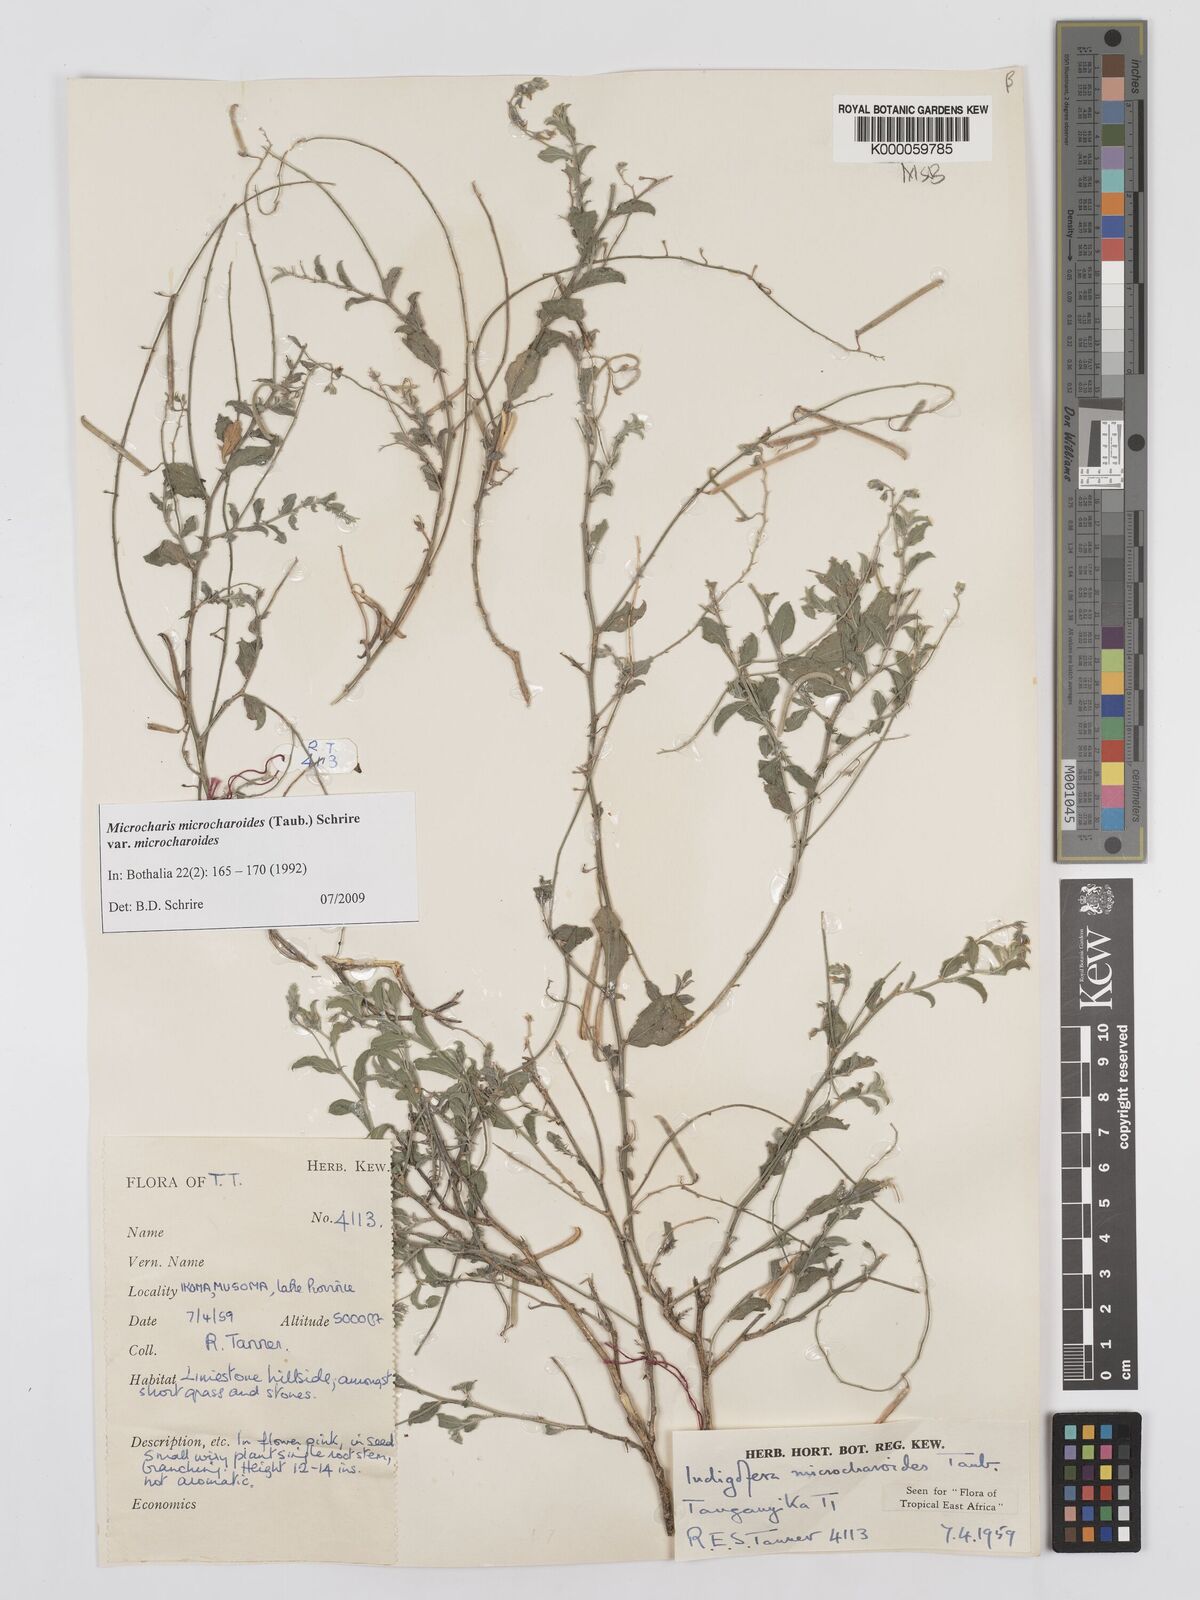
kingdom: Plantae
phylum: Tracheophyta
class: Magnoliopsida
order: Fabales
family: Fabaceae
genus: Microcharis
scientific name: Microcharis microcharoides
